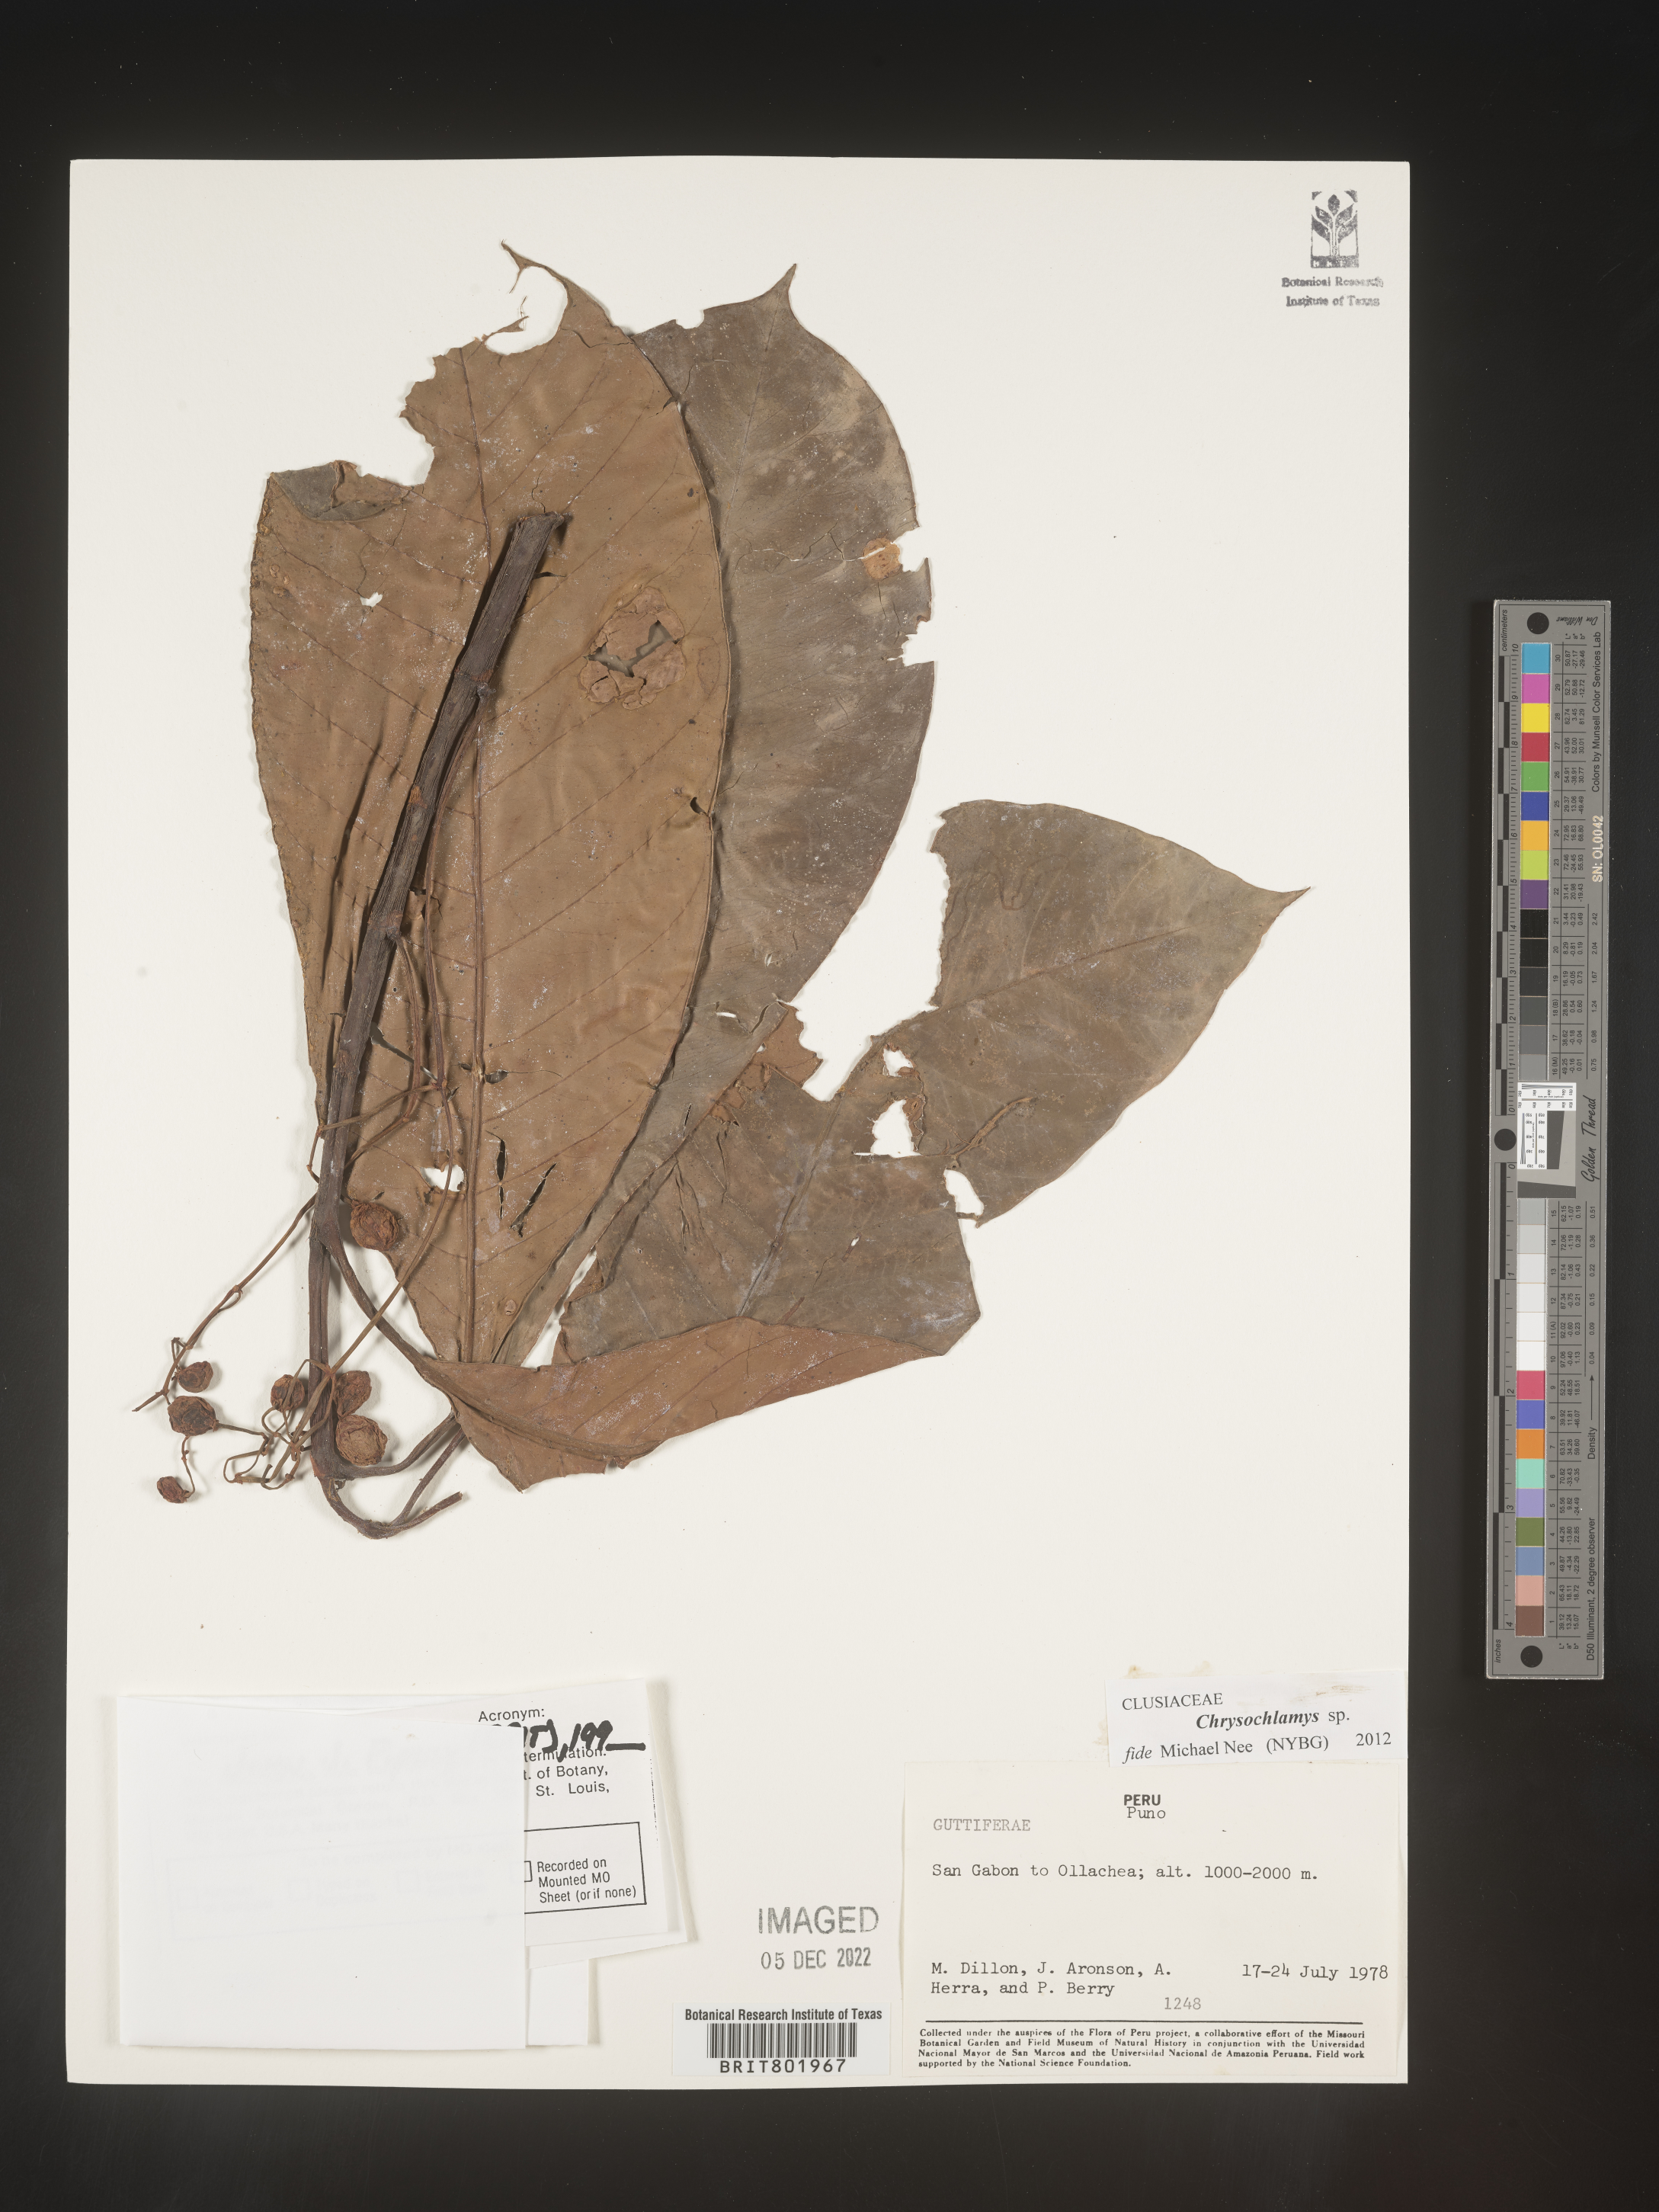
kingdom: Plantae
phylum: Tracheophyta
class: Magnoliopsida
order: Malpighiales
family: Clusiaceae
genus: Chrysochlamys
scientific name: Chrysochlamys
